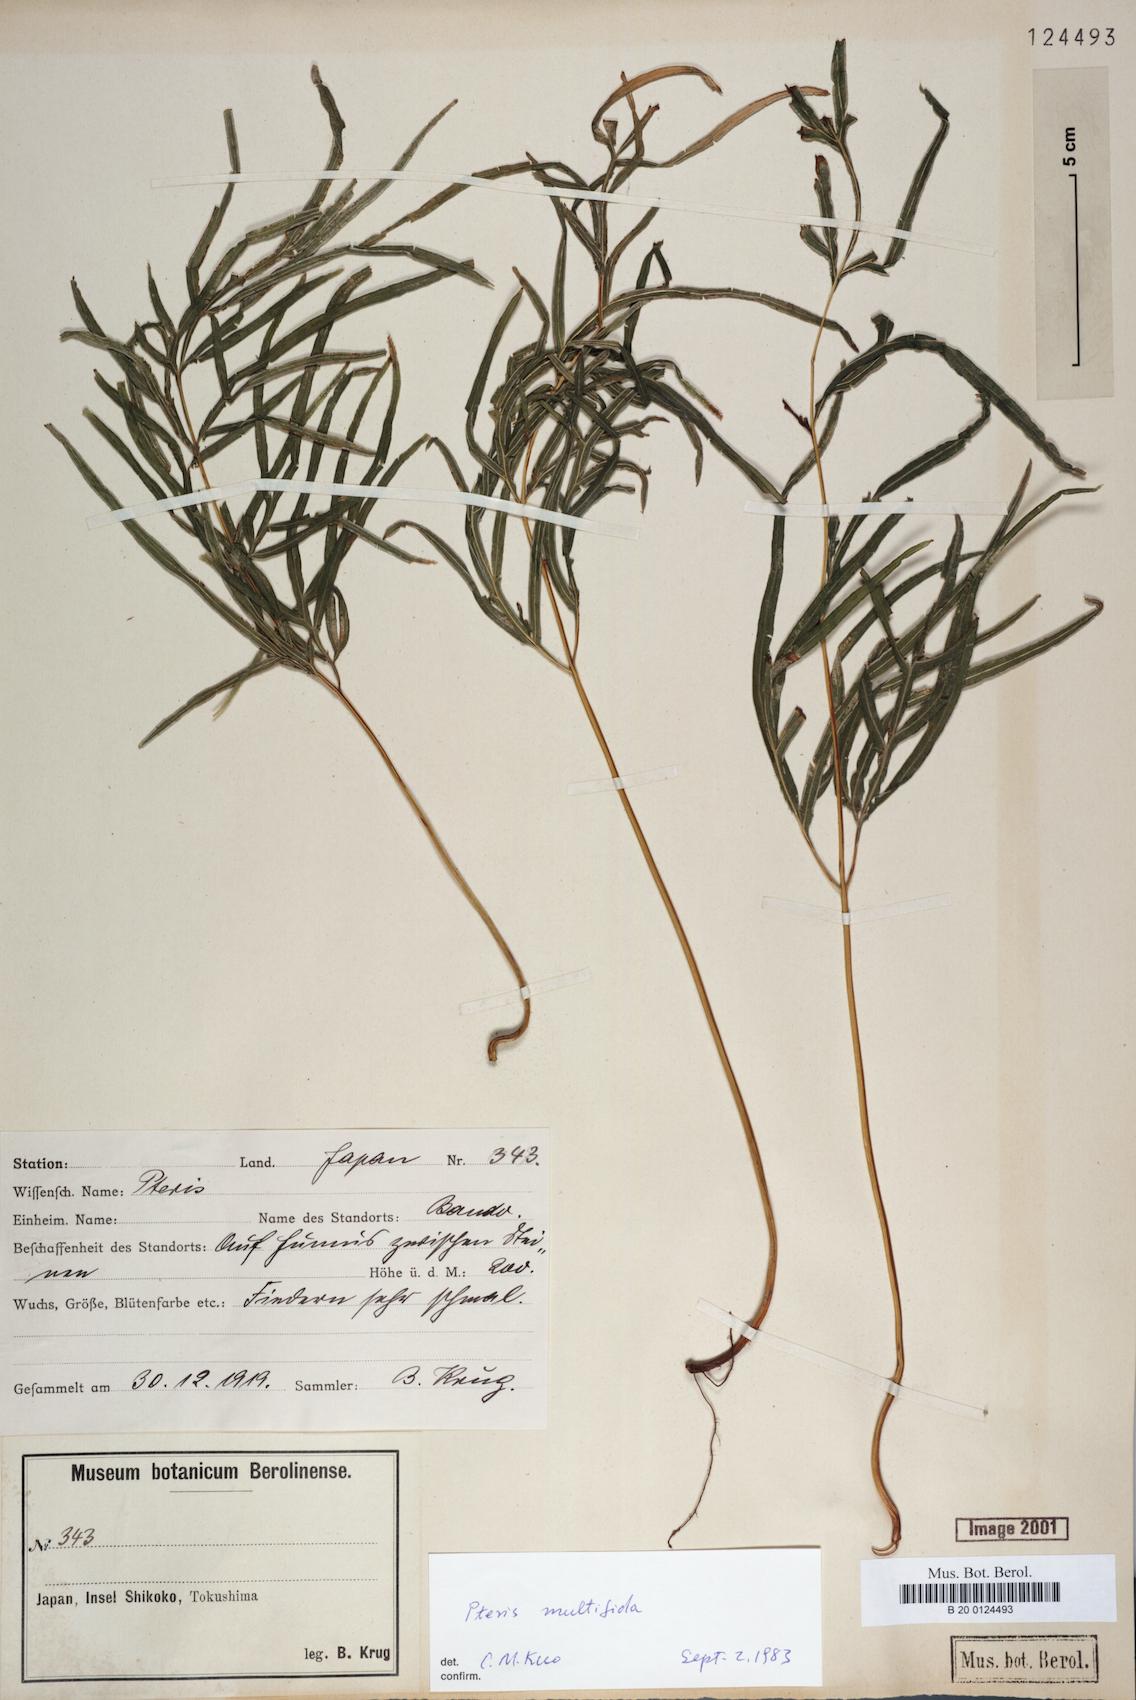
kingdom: Plantae
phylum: Tracheophyta
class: Polypodiopsida
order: Polypodiales
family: Pteridaceae
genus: Pteris
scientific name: Pteris multifida
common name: Spider brake
